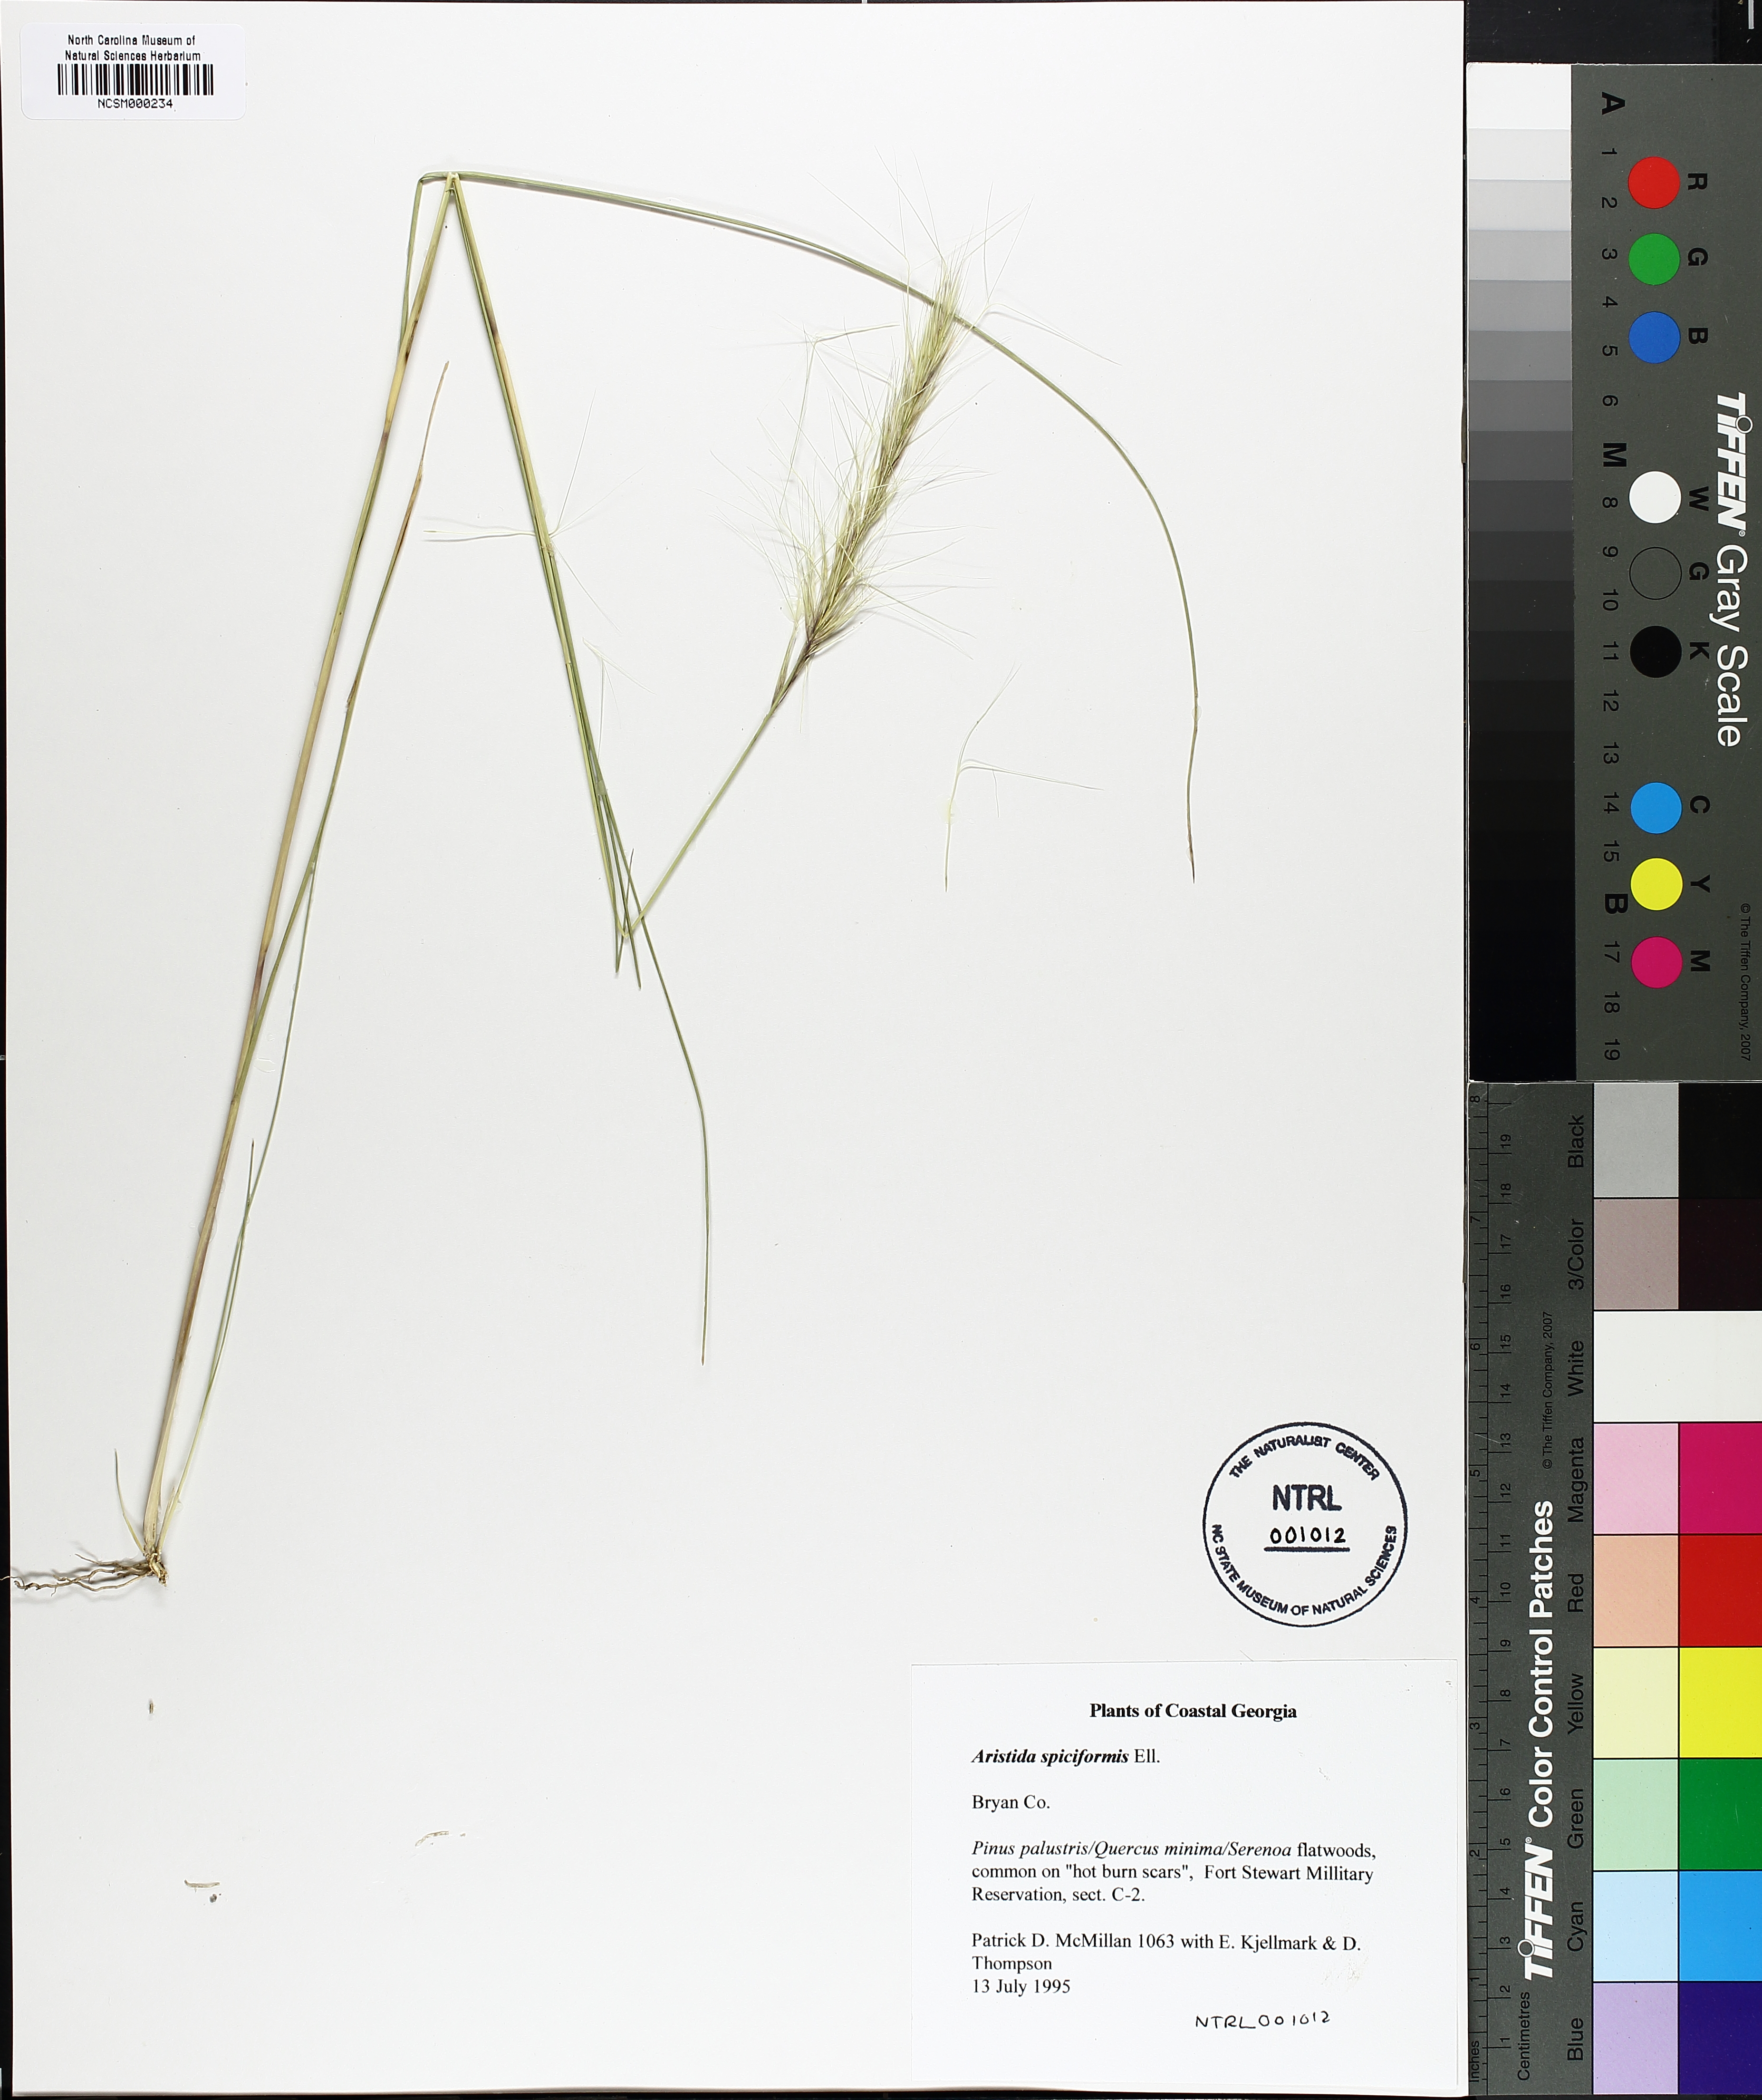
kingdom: Plantae
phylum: Tracheophyta
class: Liliopsida
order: Poales
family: Poaceae
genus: Aristida
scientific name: Aristida spiciformis
